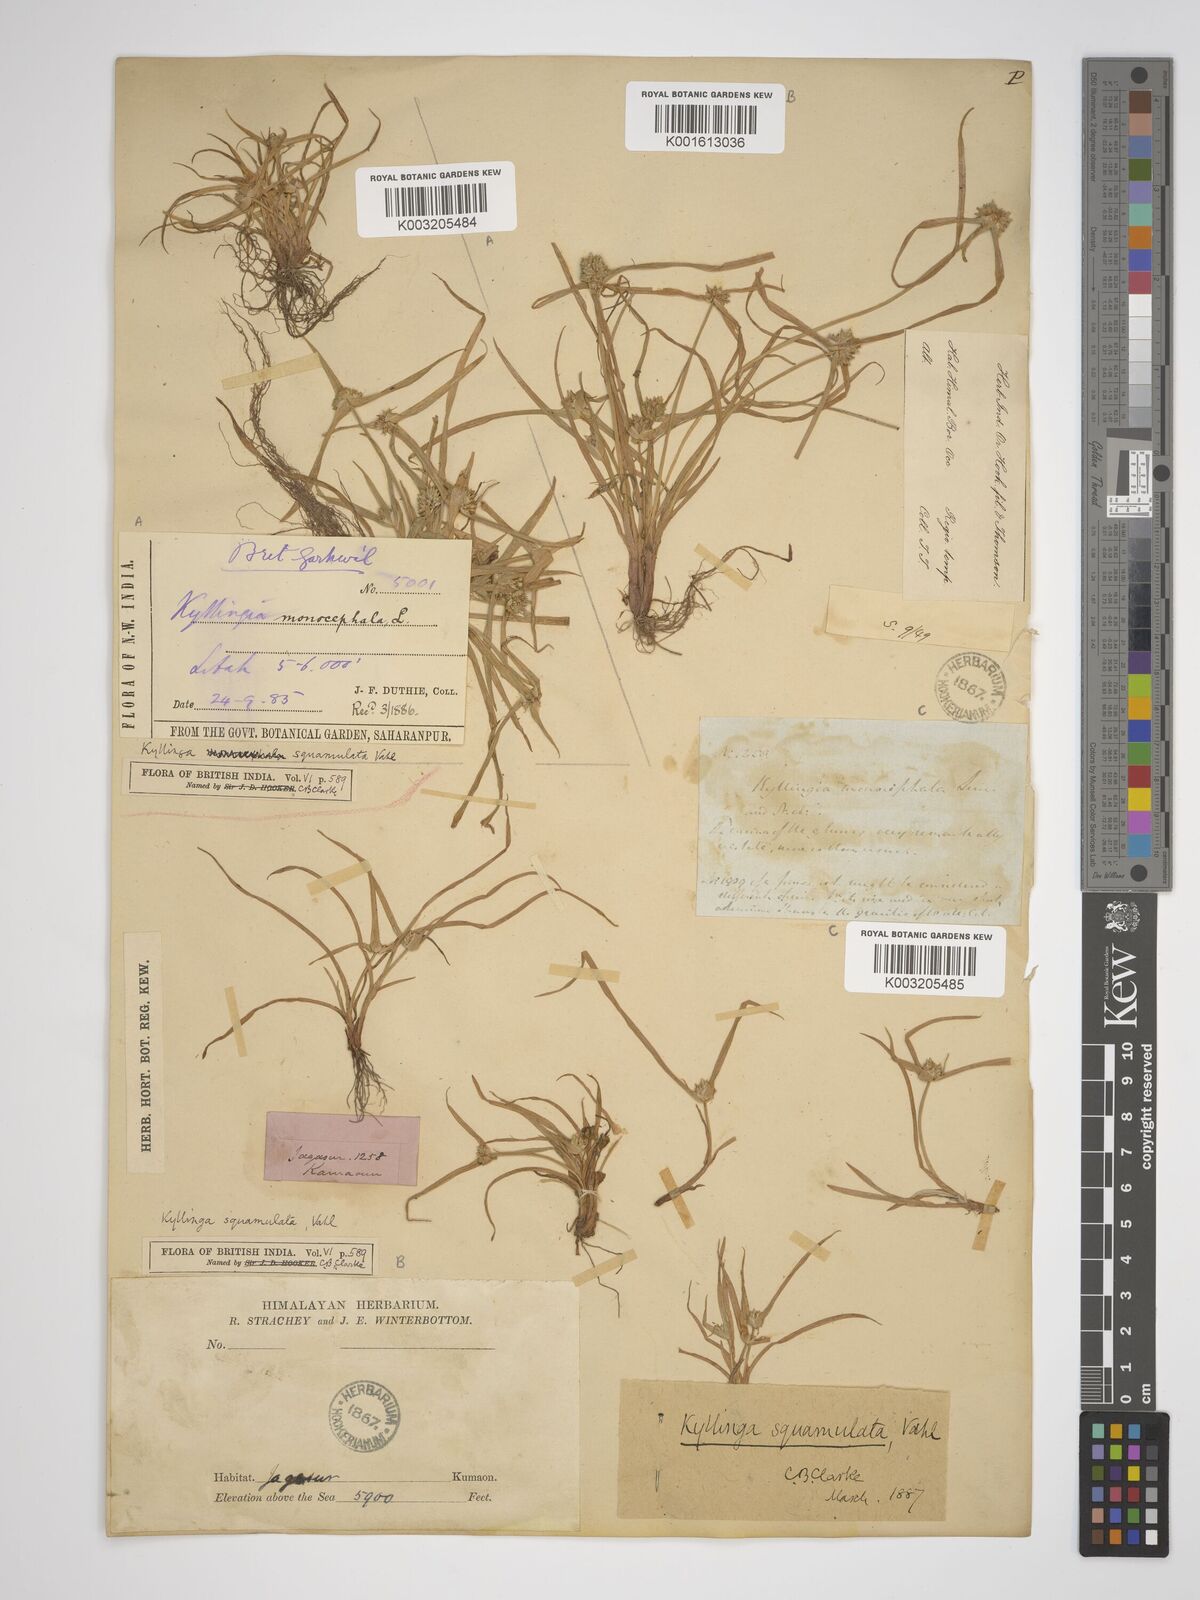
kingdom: Plantae
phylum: Tracheophyta
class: Liliopsida
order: Poales
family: Cyperaceae
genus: Cyperus
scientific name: Cyperus hortensis
